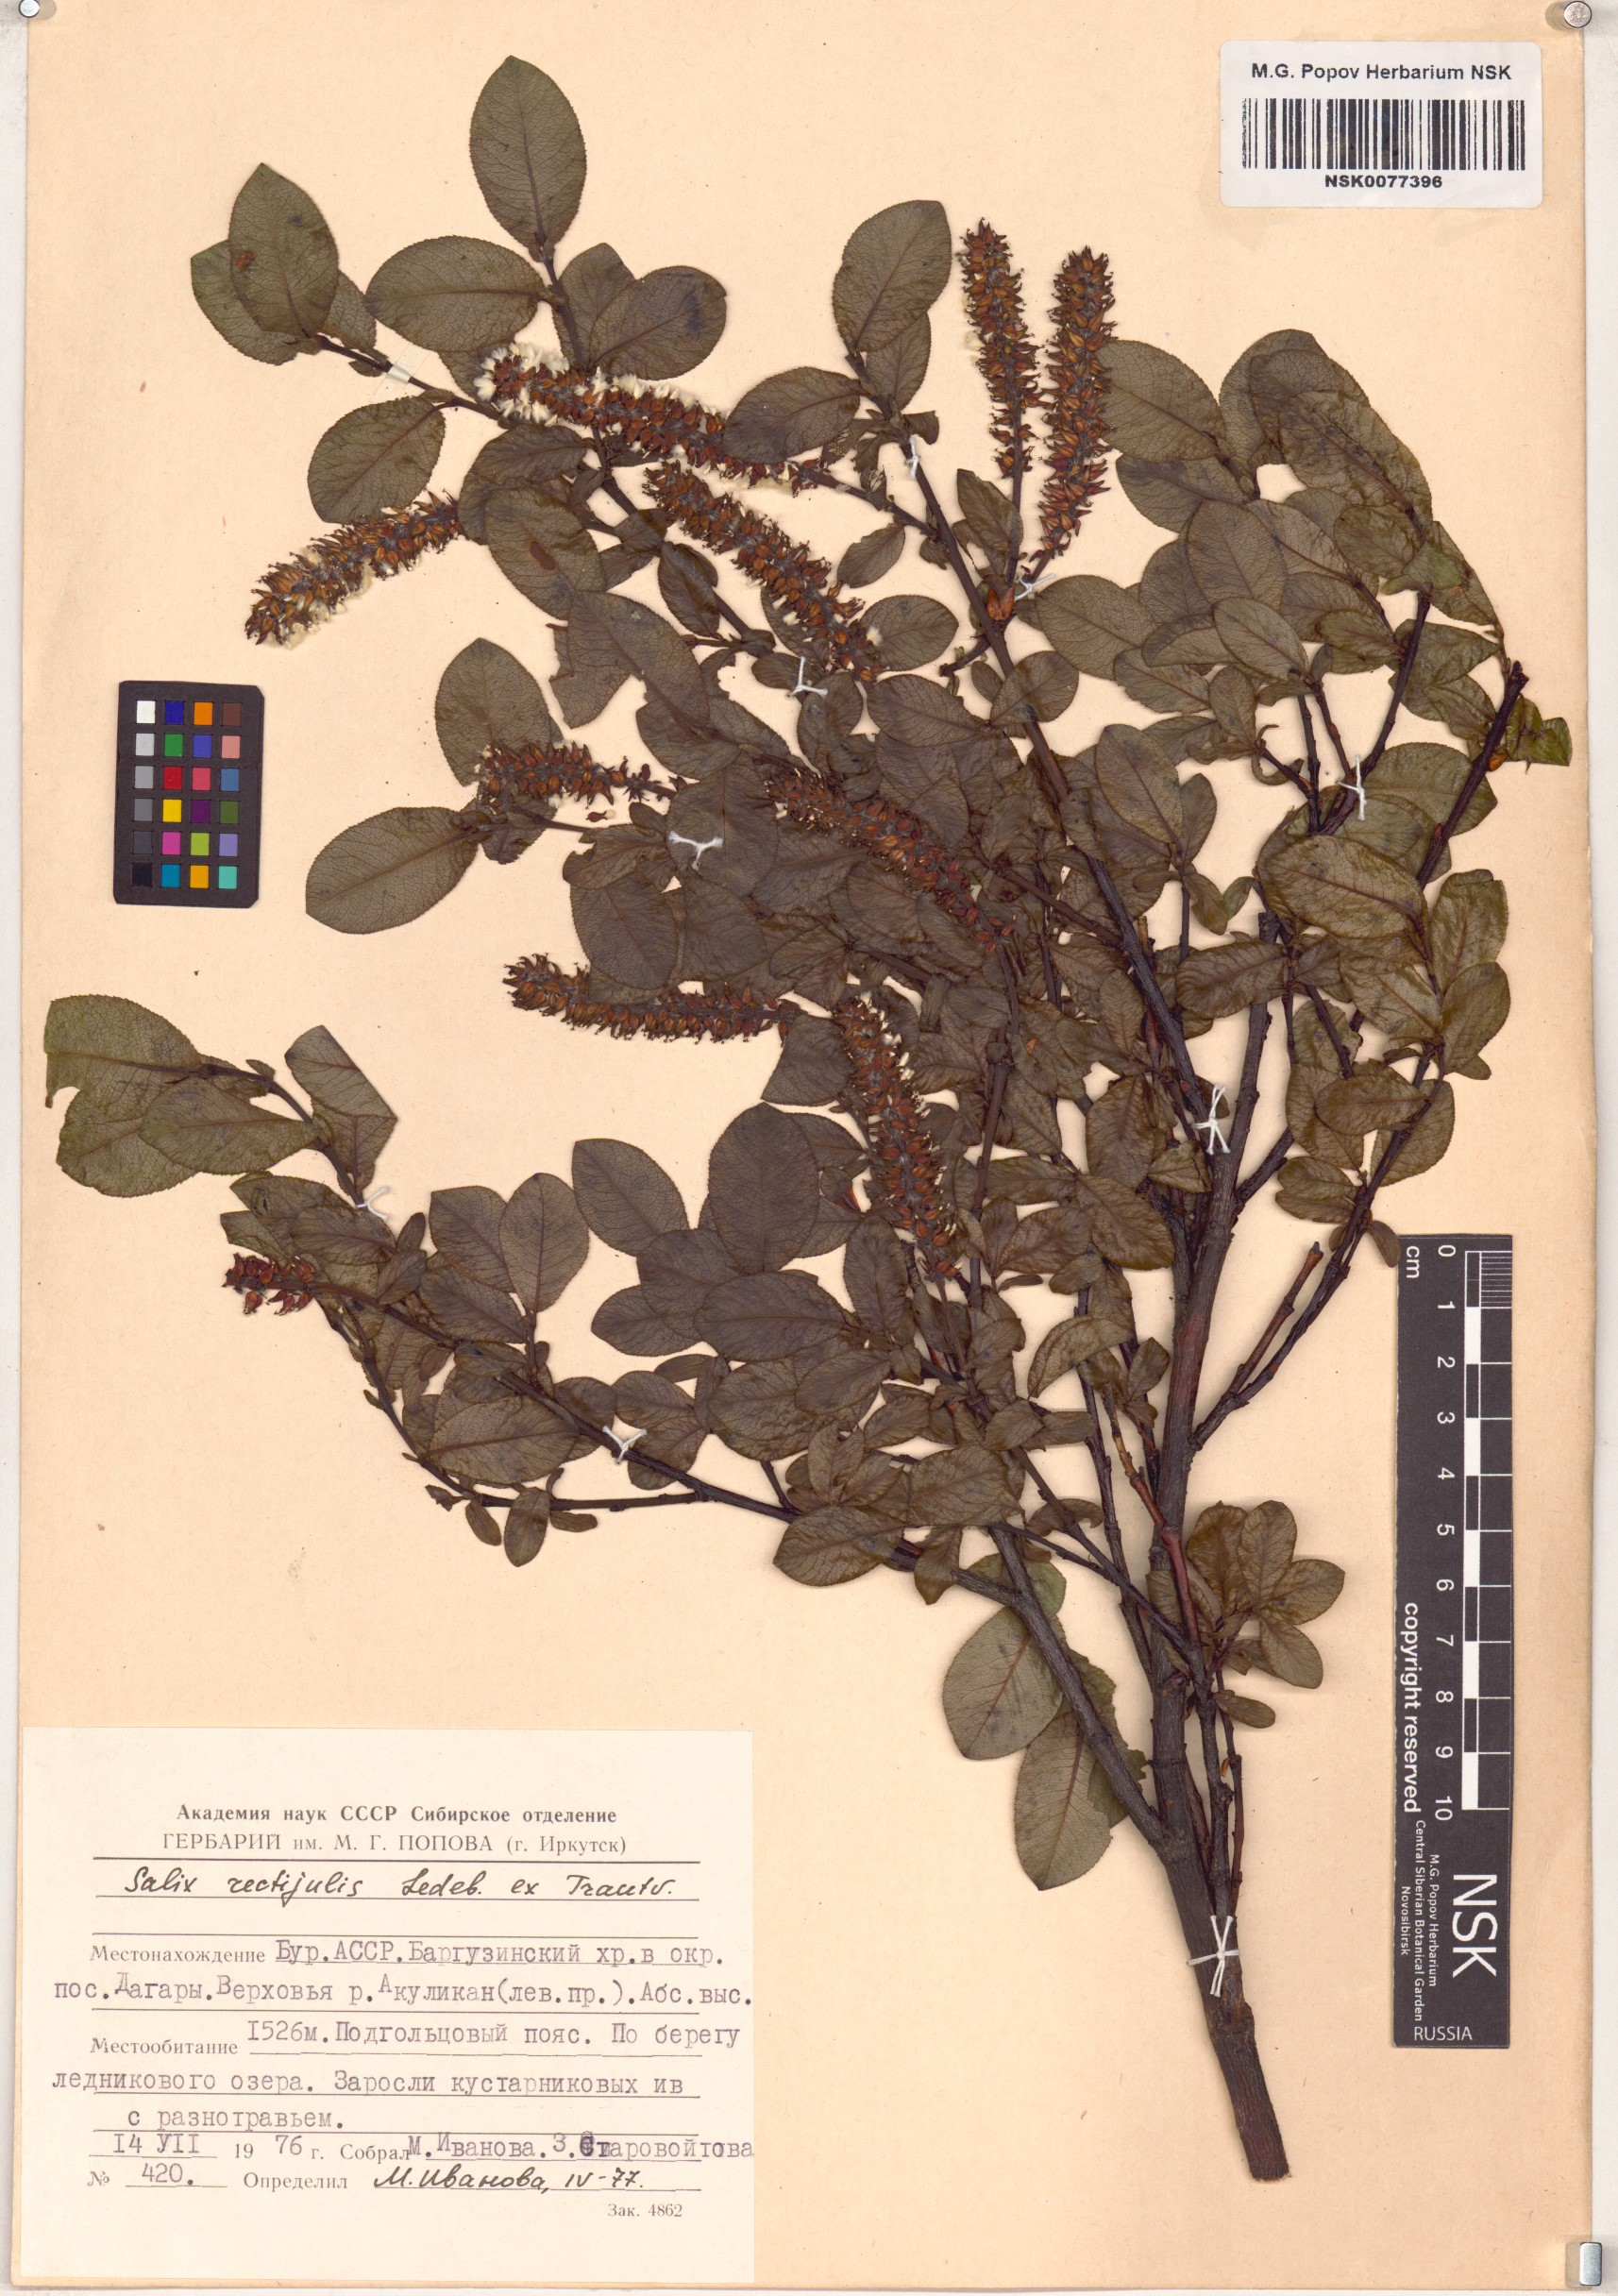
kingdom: Plantae
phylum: Tracheophyta
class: Magnoliopsida
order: Malpighiales
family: Salicaceae
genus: Salix
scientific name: Salix rectijulis
